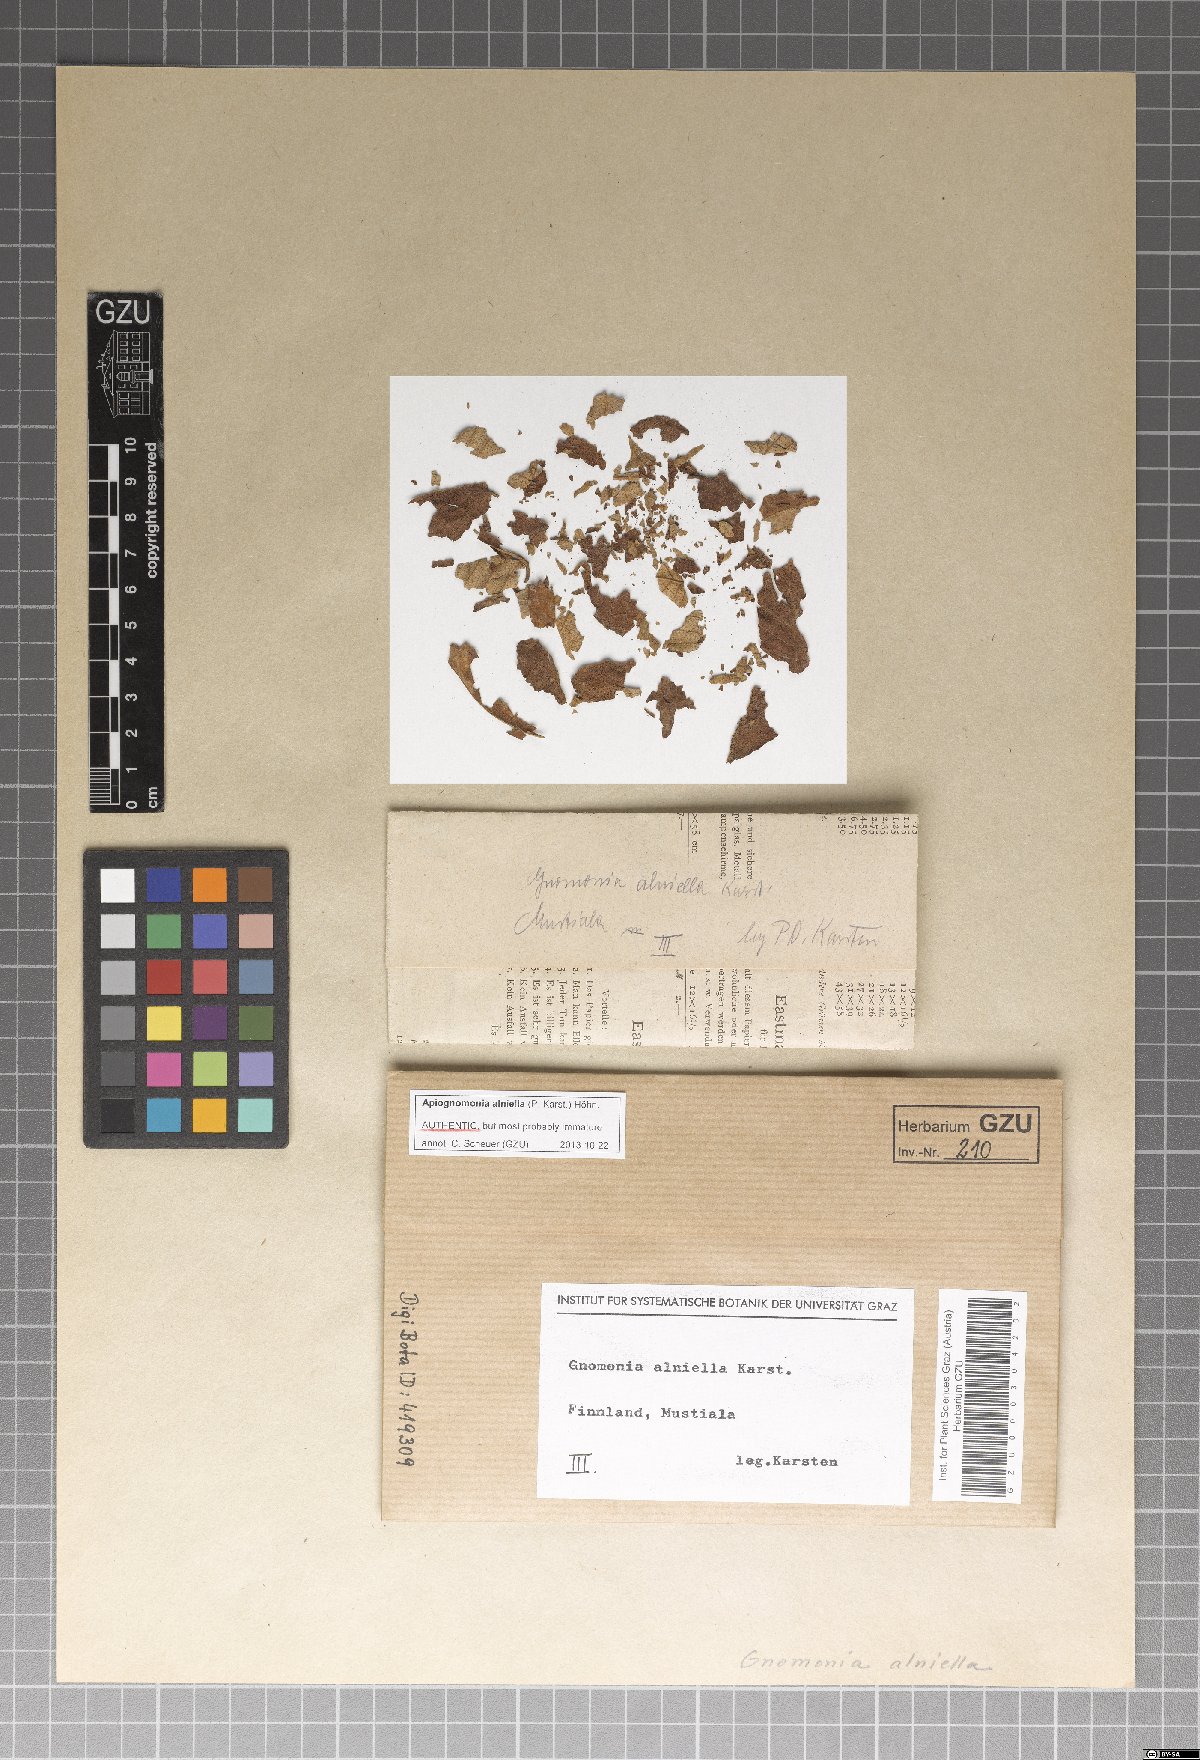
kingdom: Fungi
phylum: Ascomycota
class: Sordariomycetes
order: Diaporthales
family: Gnomoniaceae
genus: Apiognomonia
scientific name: Apiognomonia alniella
